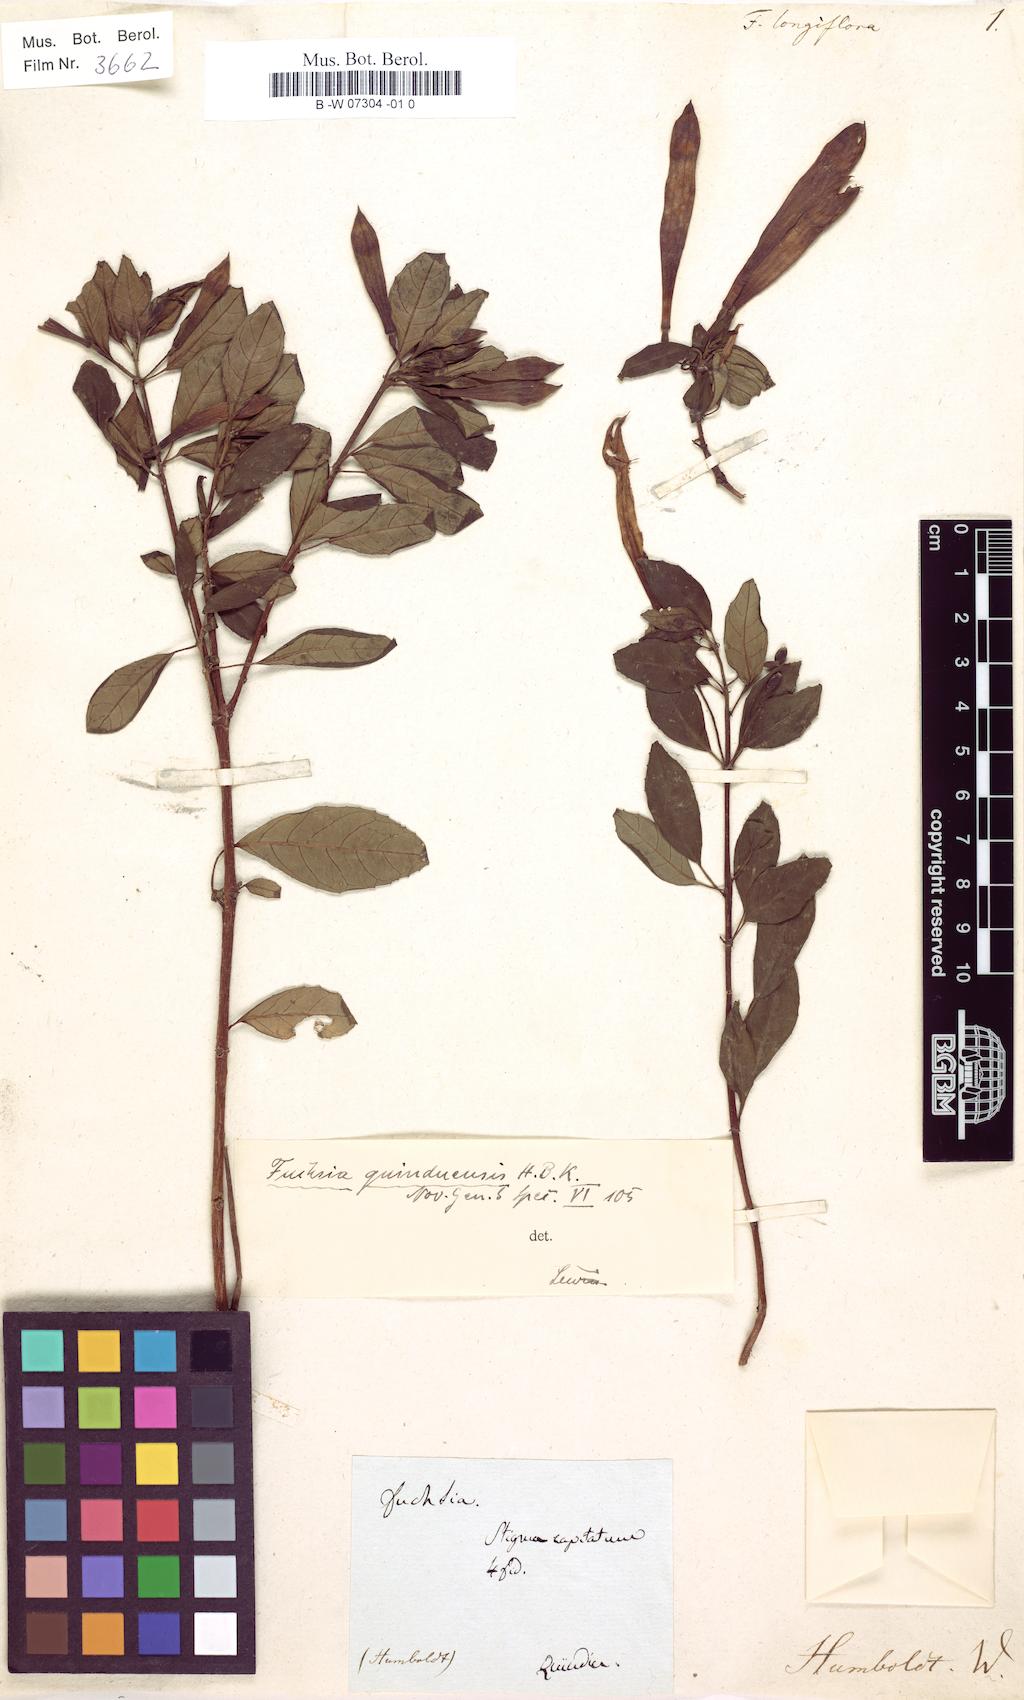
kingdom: Plantae
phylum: Tracheophyta
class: Magnoliopsida
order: Myrtales
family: Onagraceae
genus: Fuchsia
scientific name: Fuchsia macrostigma
